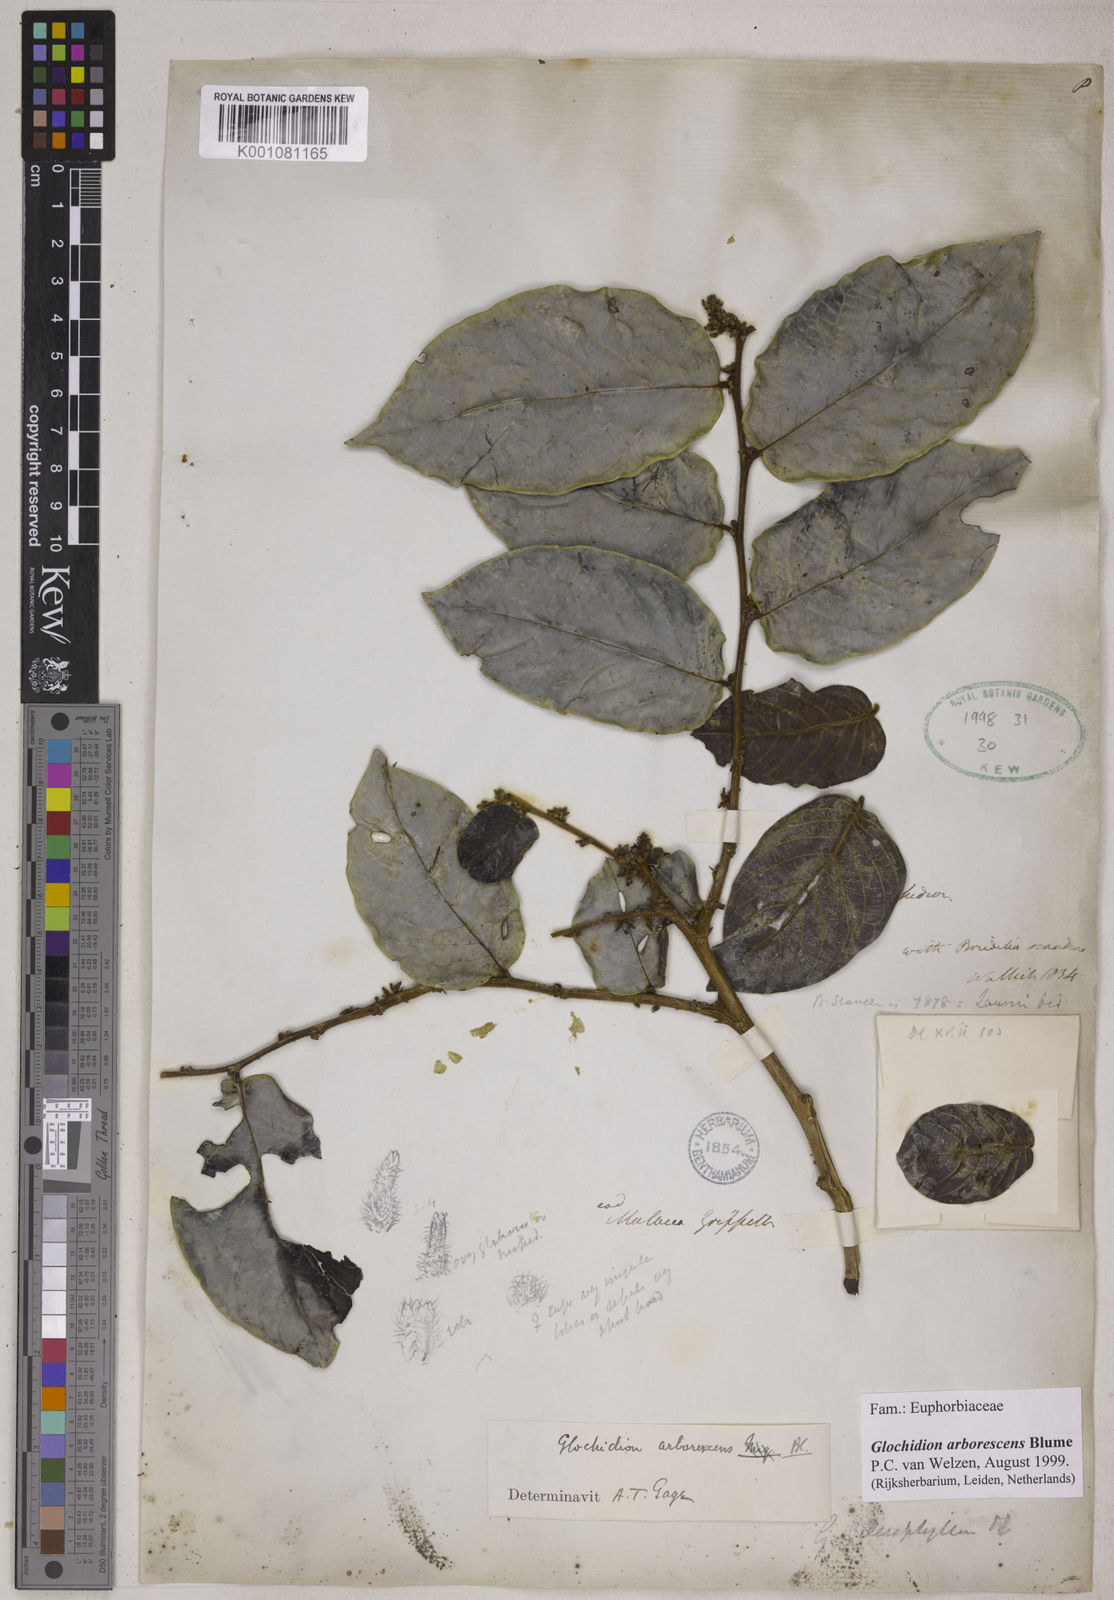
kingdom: Plantae
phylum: Tracheophyta
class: Magnoliopsida
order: Malpighiales
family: Phyllanthaceae
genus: Glochidion
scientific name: Glochidion zeylanicum
